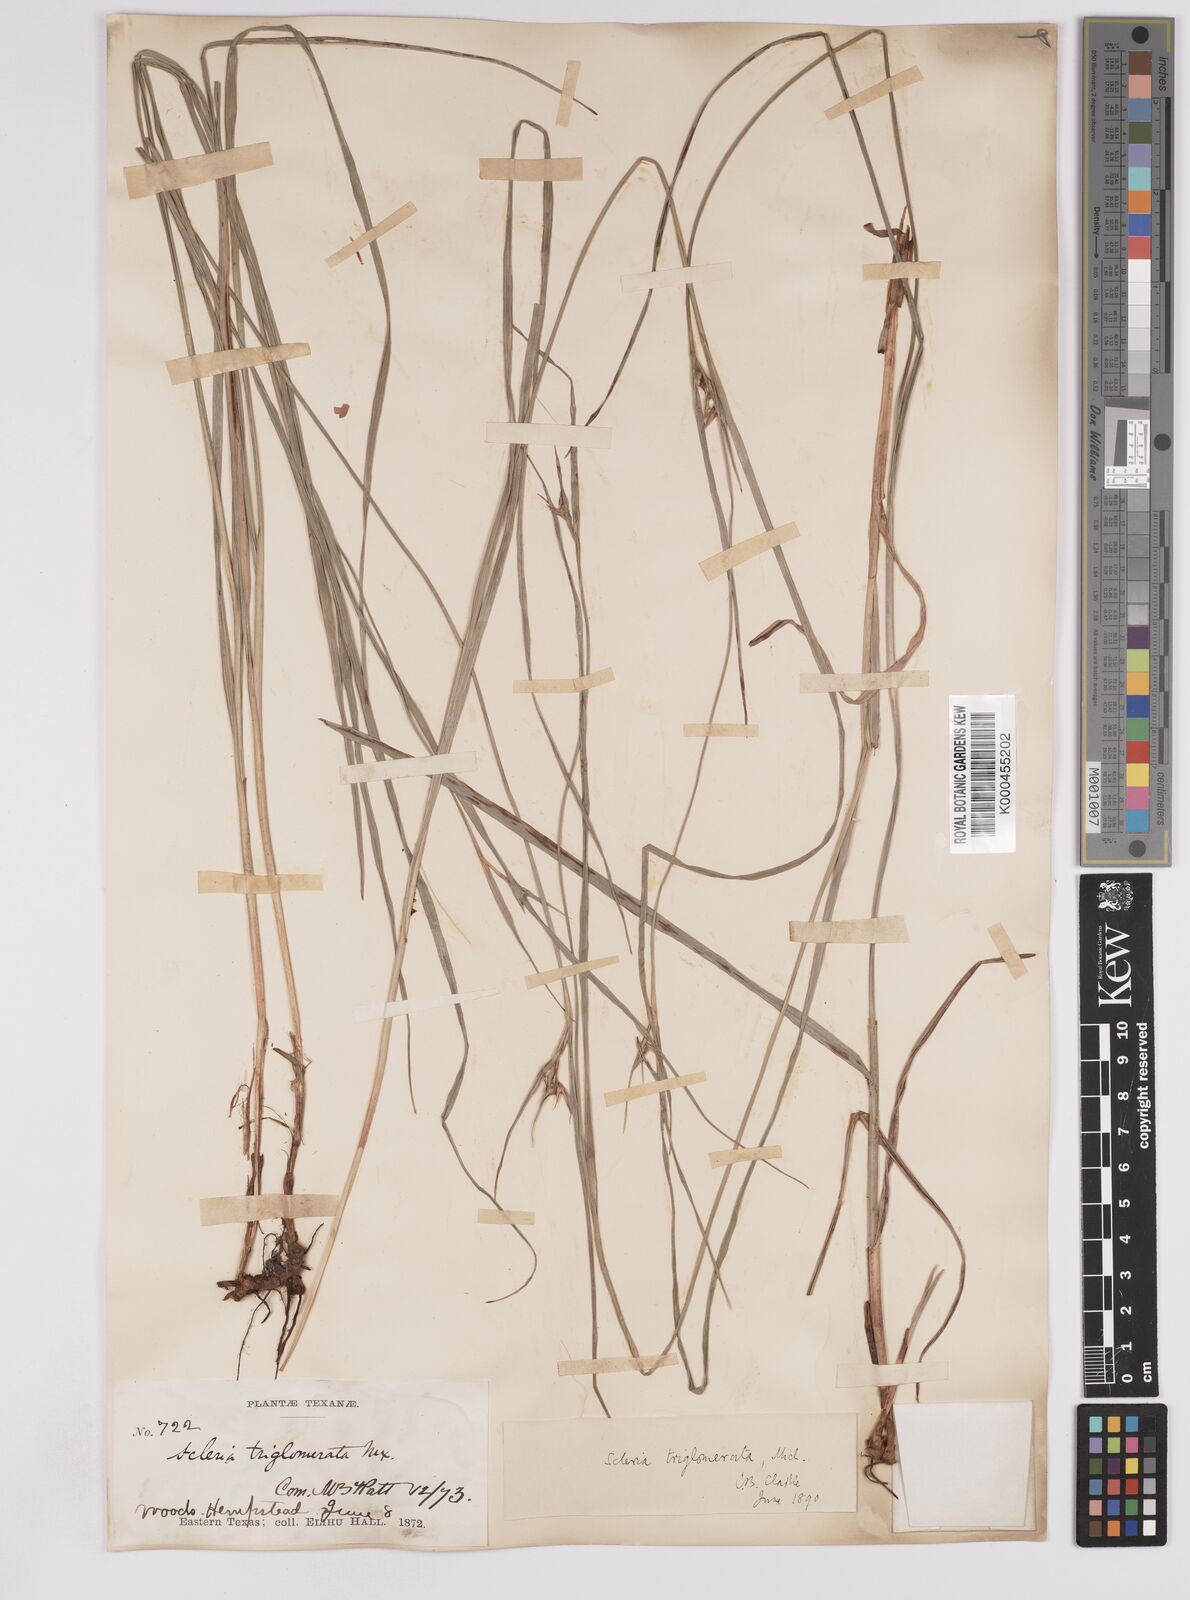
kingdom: Plantae
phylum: Tracheophyta
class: Liliopsida
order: Poales
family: Cyperaceae
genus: Scleria
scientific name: Scleria triglomerata
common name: Whip nutrush
